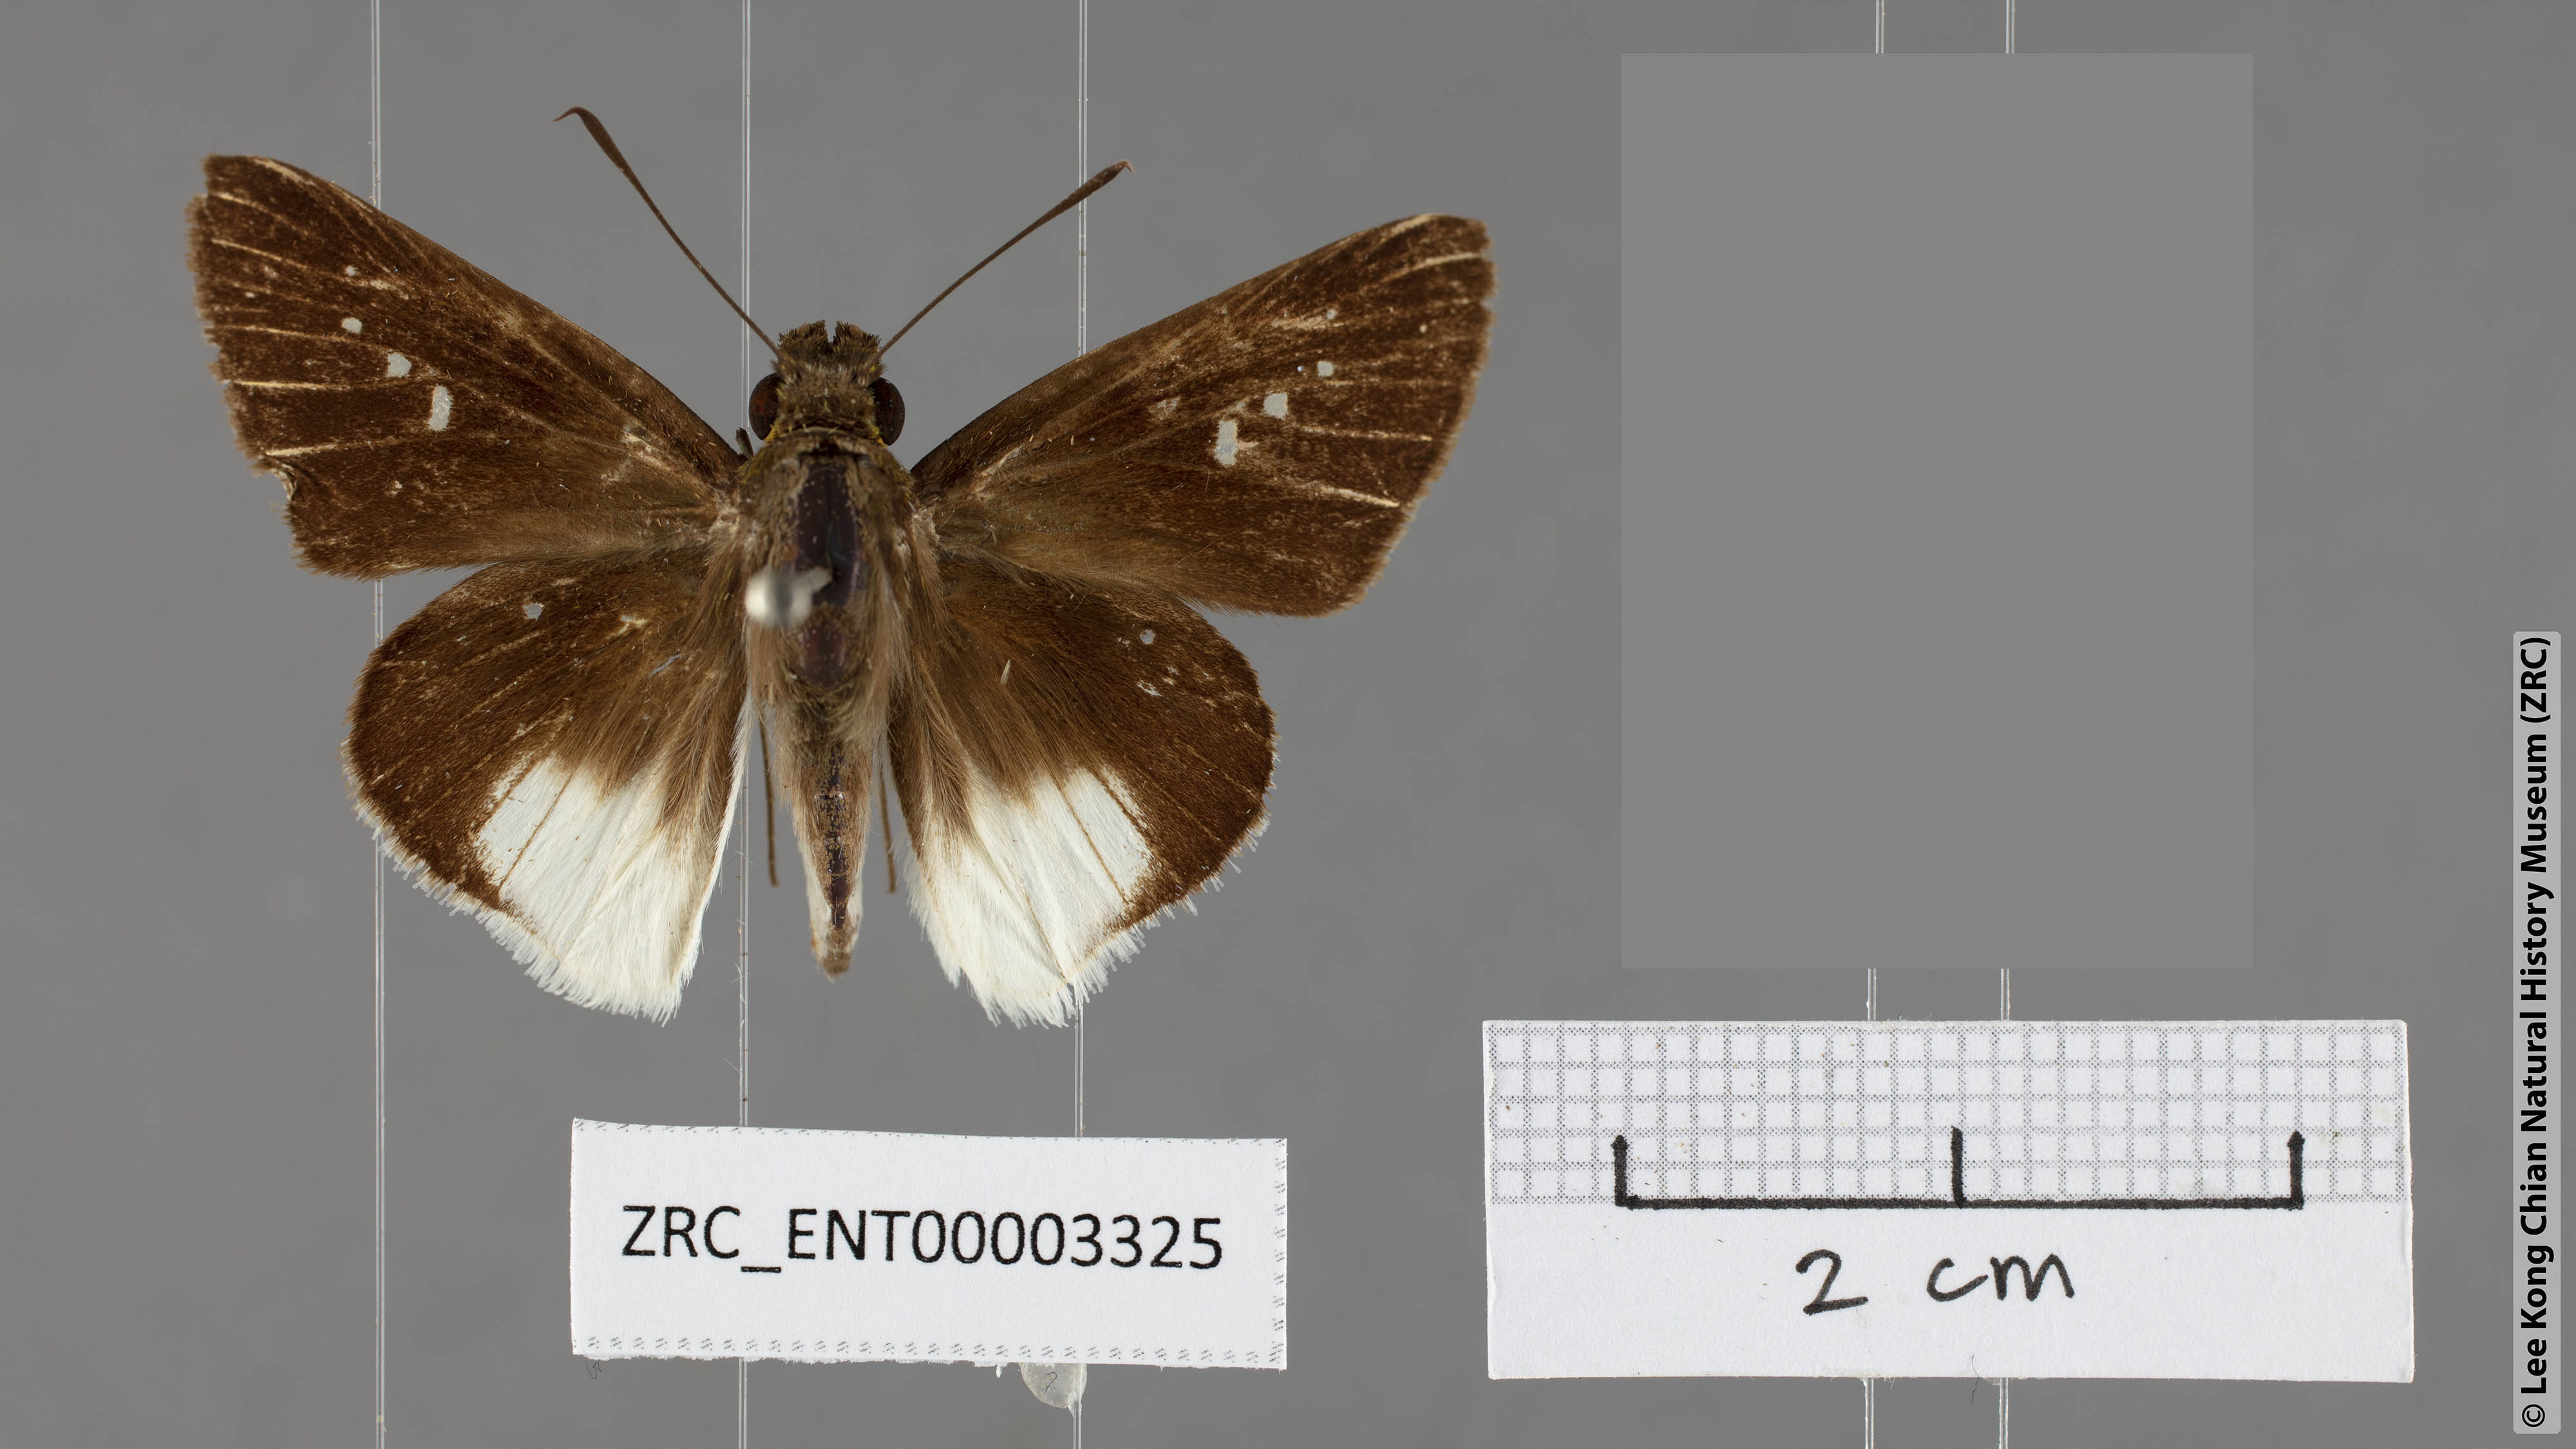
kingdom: Animalia
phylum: Arthropoda
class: Insecta
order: Lepidoptera
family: Hesperiidae
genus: Iton
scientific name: Iton semamora
